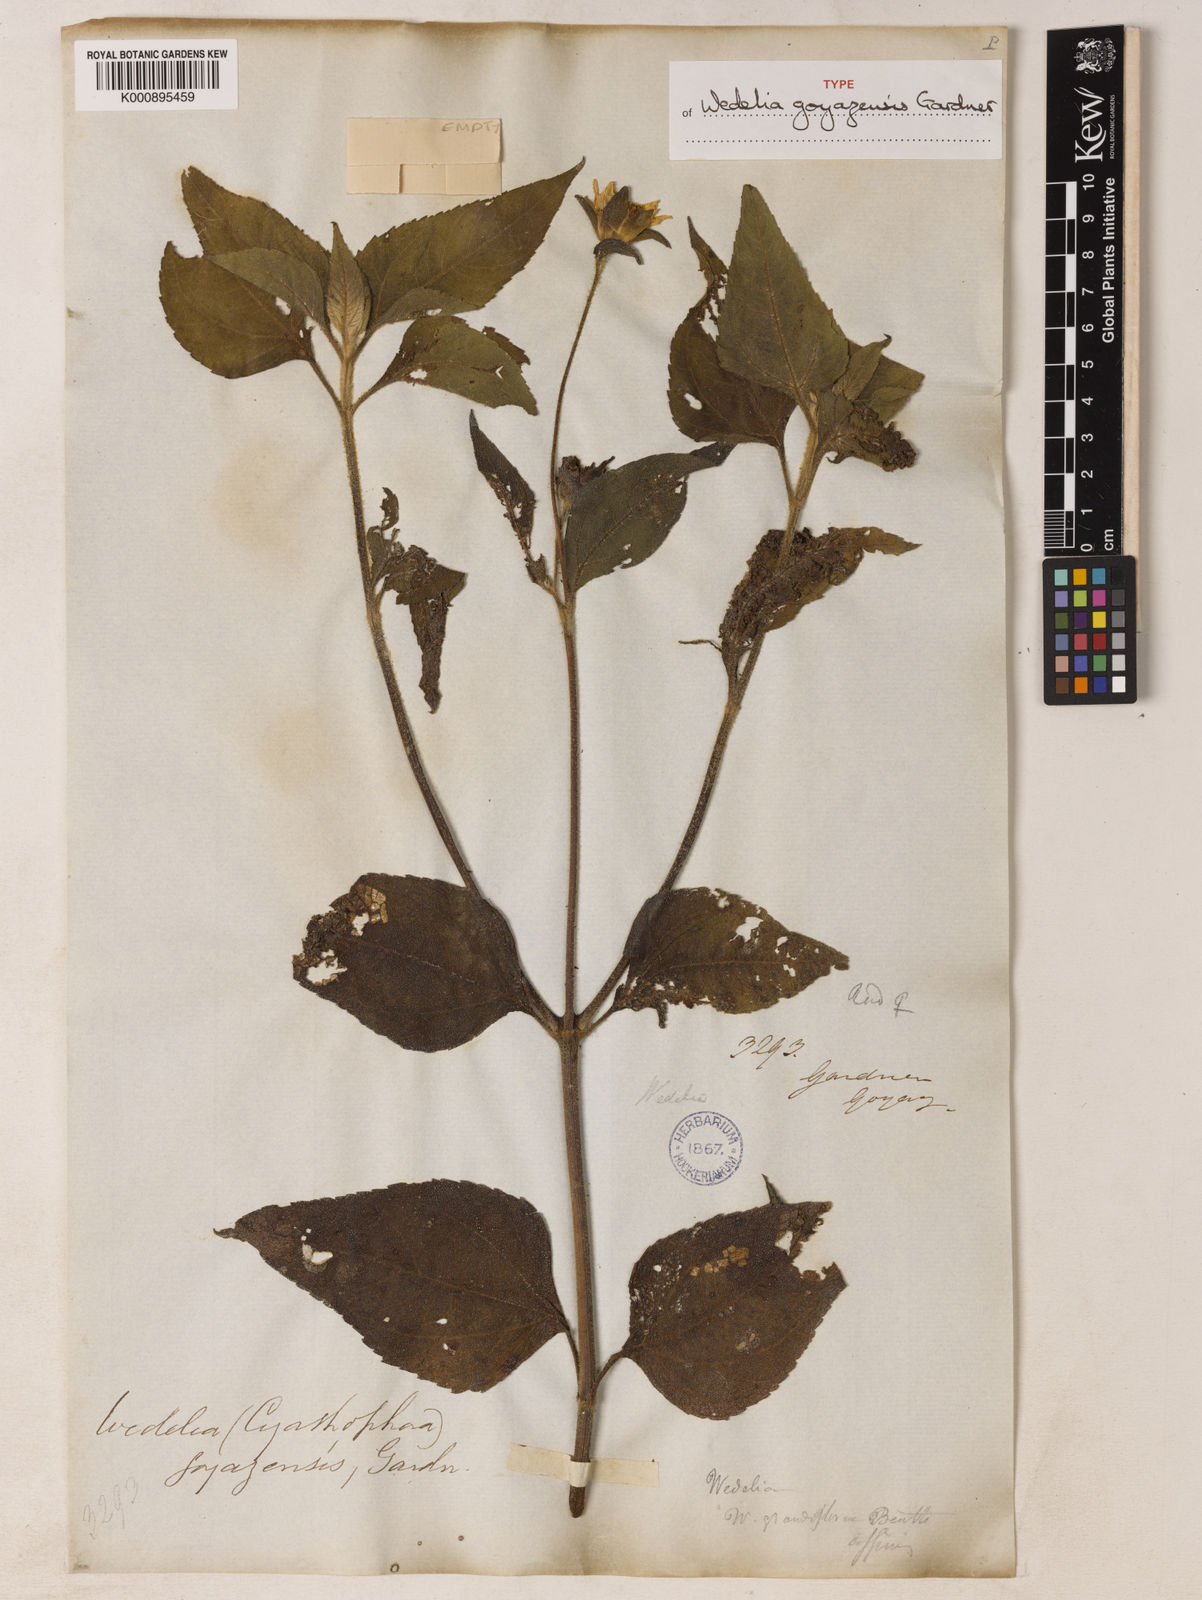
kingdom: Plantae
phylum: Tracheophyta
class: Magnoliopsida
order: Asterales
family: Asteraceae
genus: Wedelia
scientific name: Wedelia goyazensis
